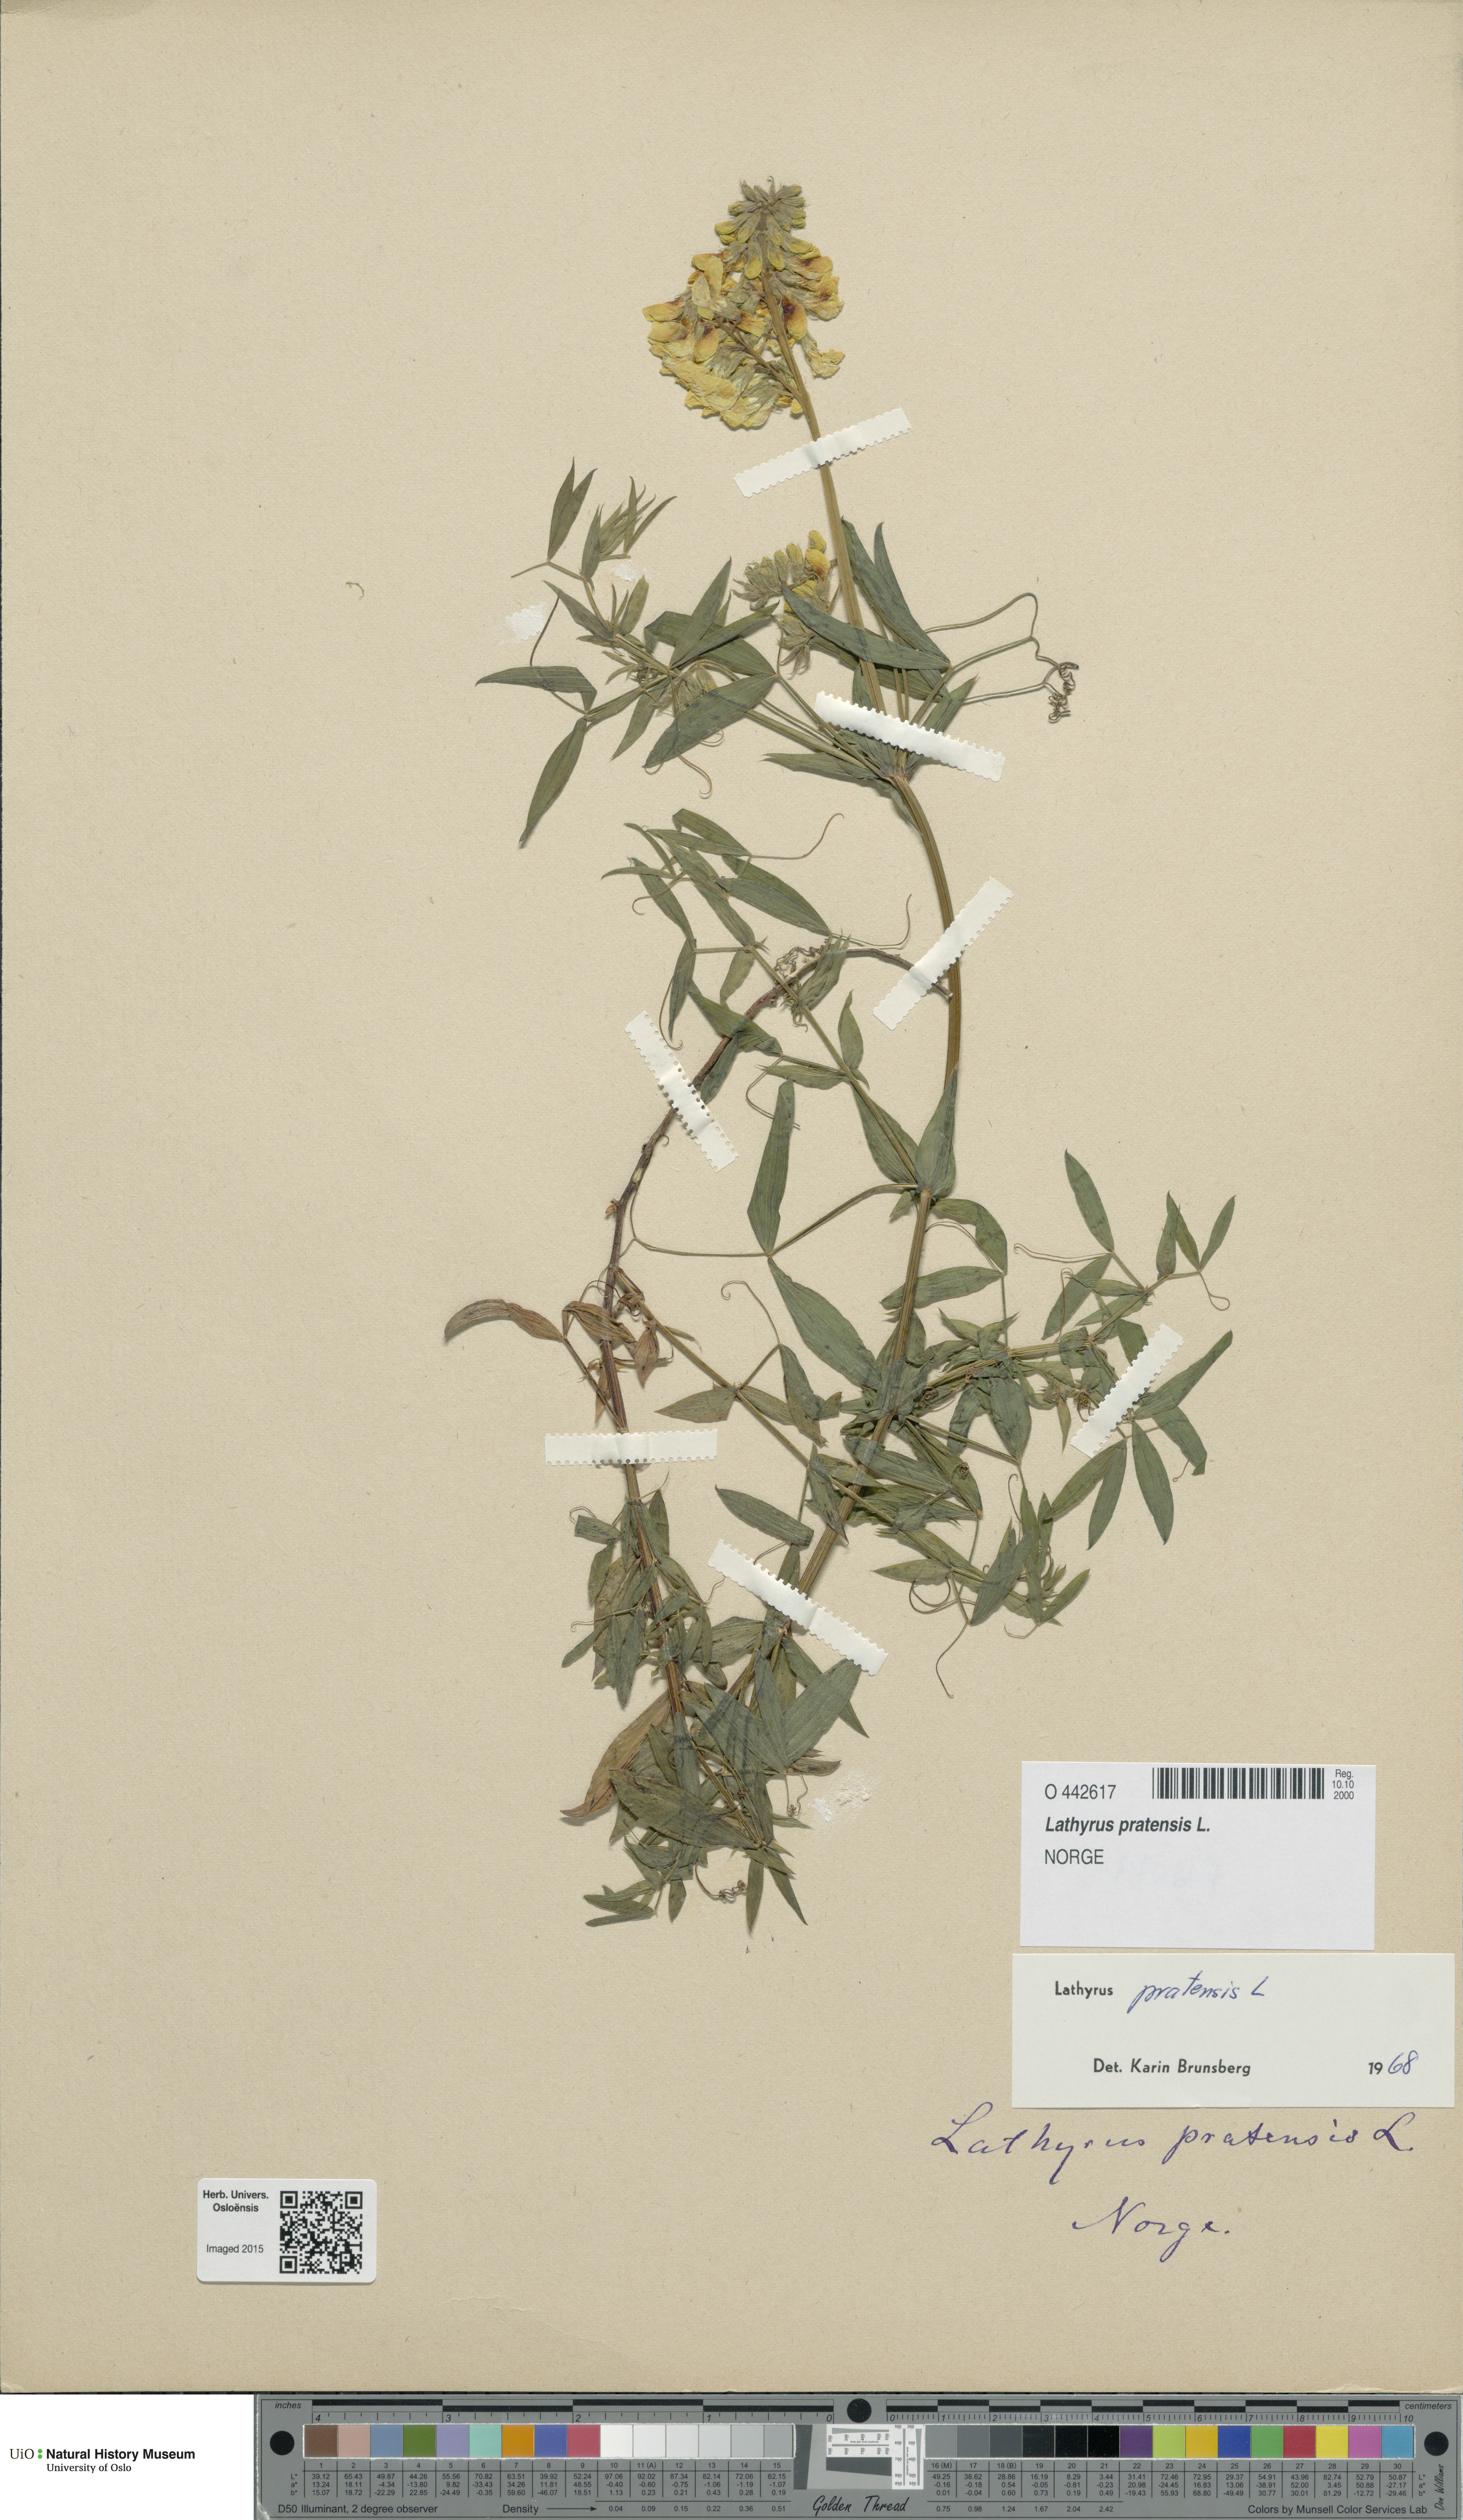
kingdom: Plantae
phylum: Tracheophyta
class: Magnoliopsida
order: Fabales
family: Fabaceae
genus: Lathyrus
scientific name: Lathyrus pratensis
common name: Meadow vetchling
